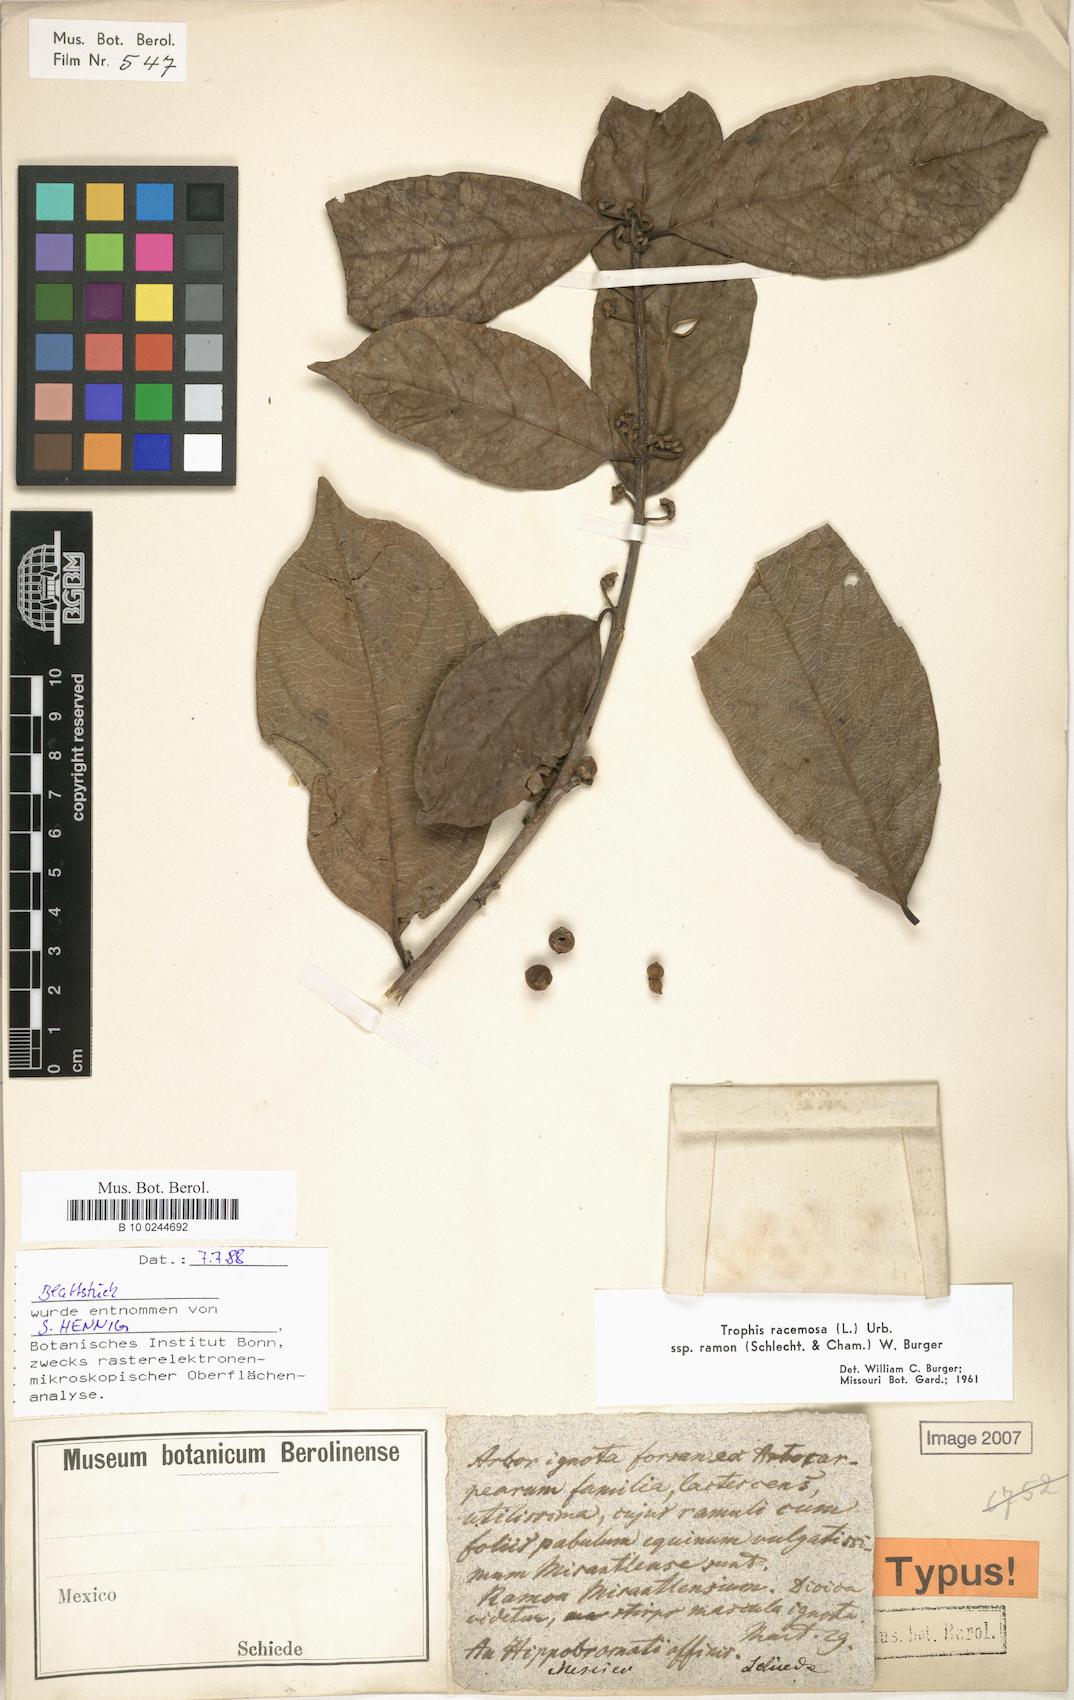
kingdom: Plantae
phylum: Tracheophyta
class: Magnoliopsida
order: Rosales
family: Moraceae
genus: Trophis
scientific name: Trophis racemosa
